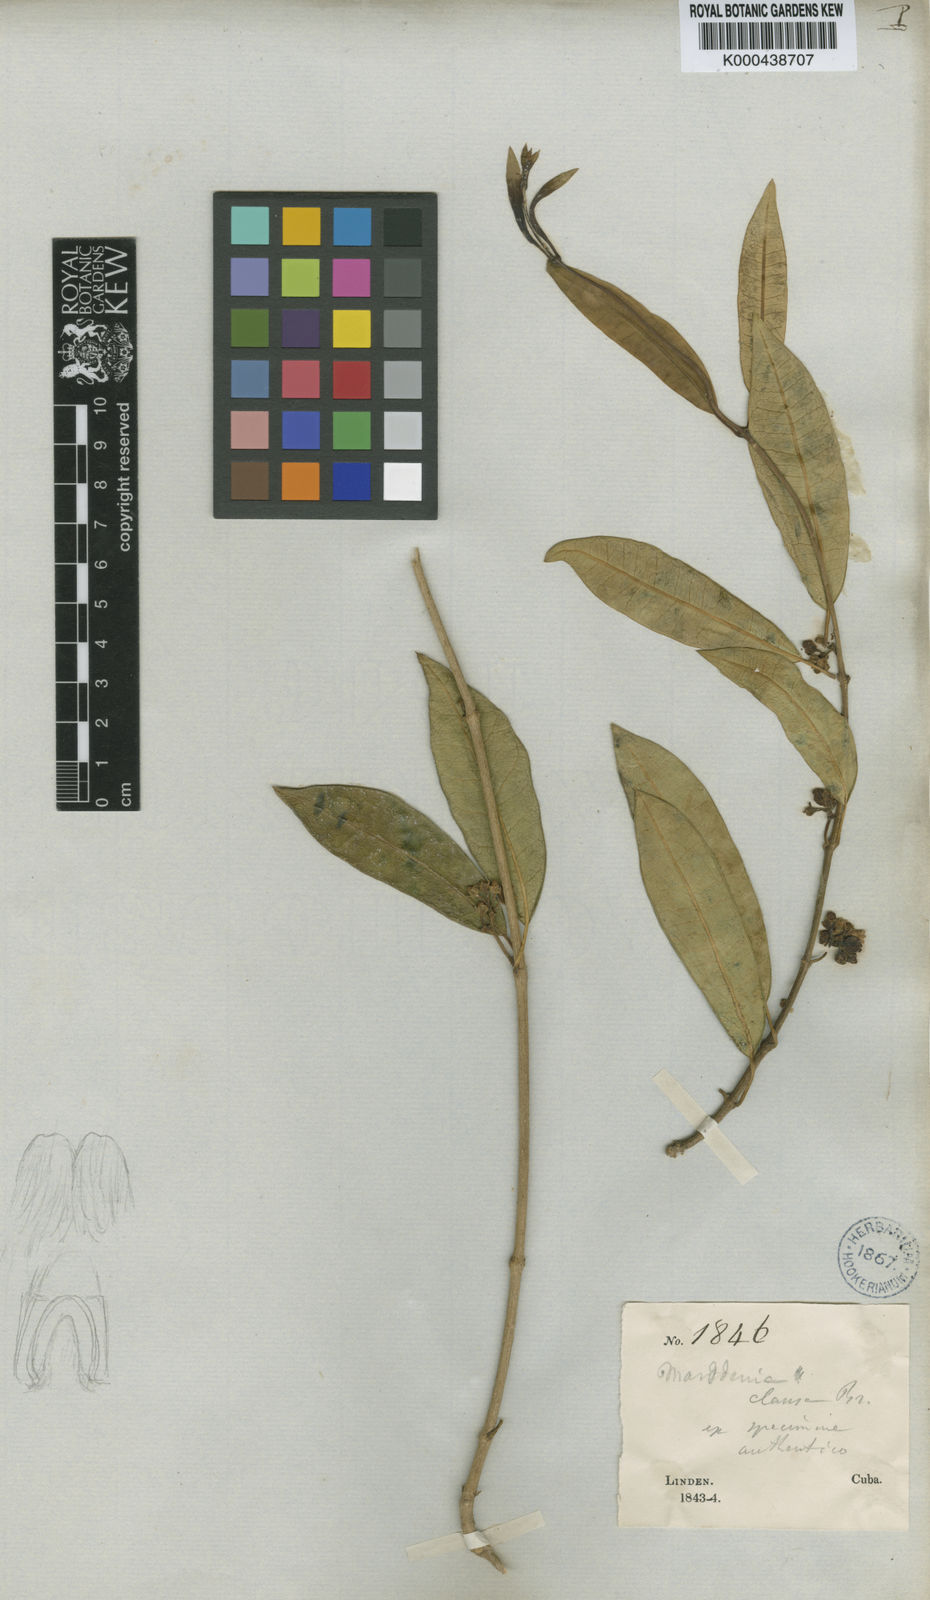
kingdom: Plantae
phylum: Tracheophyta
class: Magnoliopsida
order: Gentianales
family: Apocynaceae
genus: Ruehssia
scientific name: Ruehssia clausa
